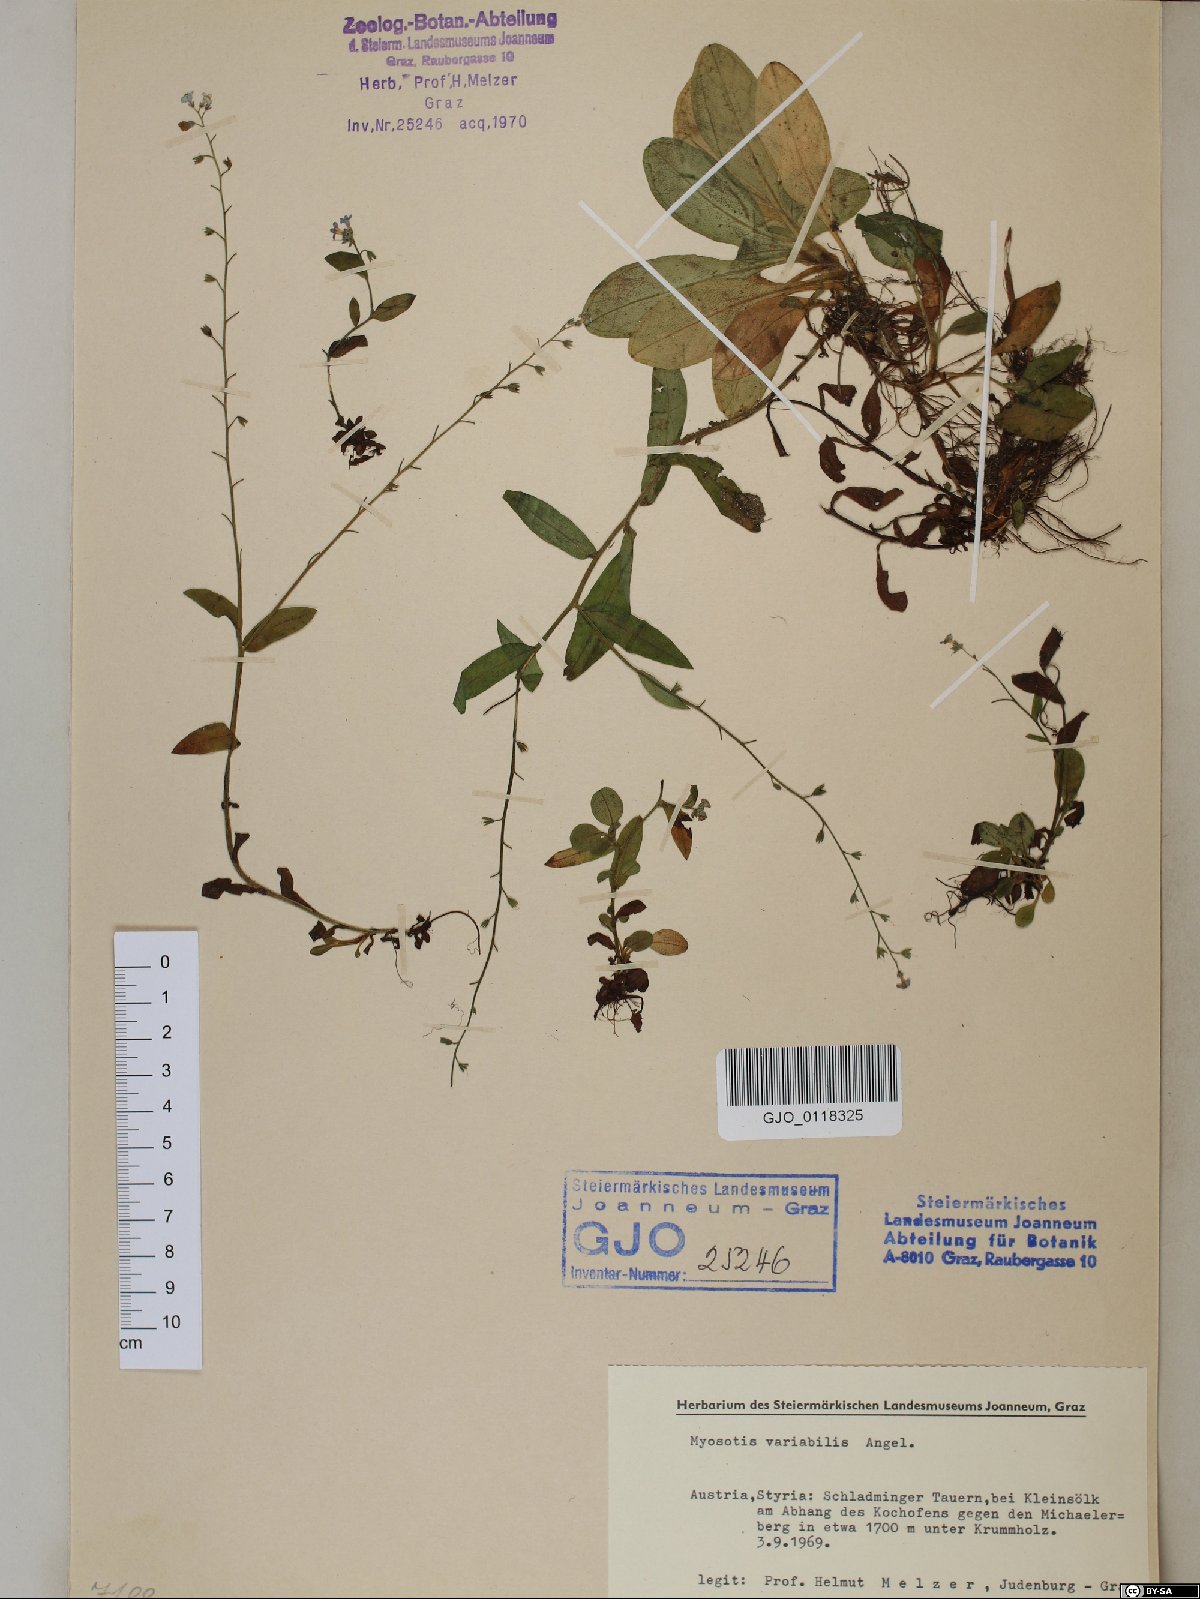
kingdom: Plantae
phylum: Tracheophyta
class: Magnoliopsida
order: Boraginales
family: Boraginaceae
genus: Myosotis
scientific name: Myosotis decumbens
